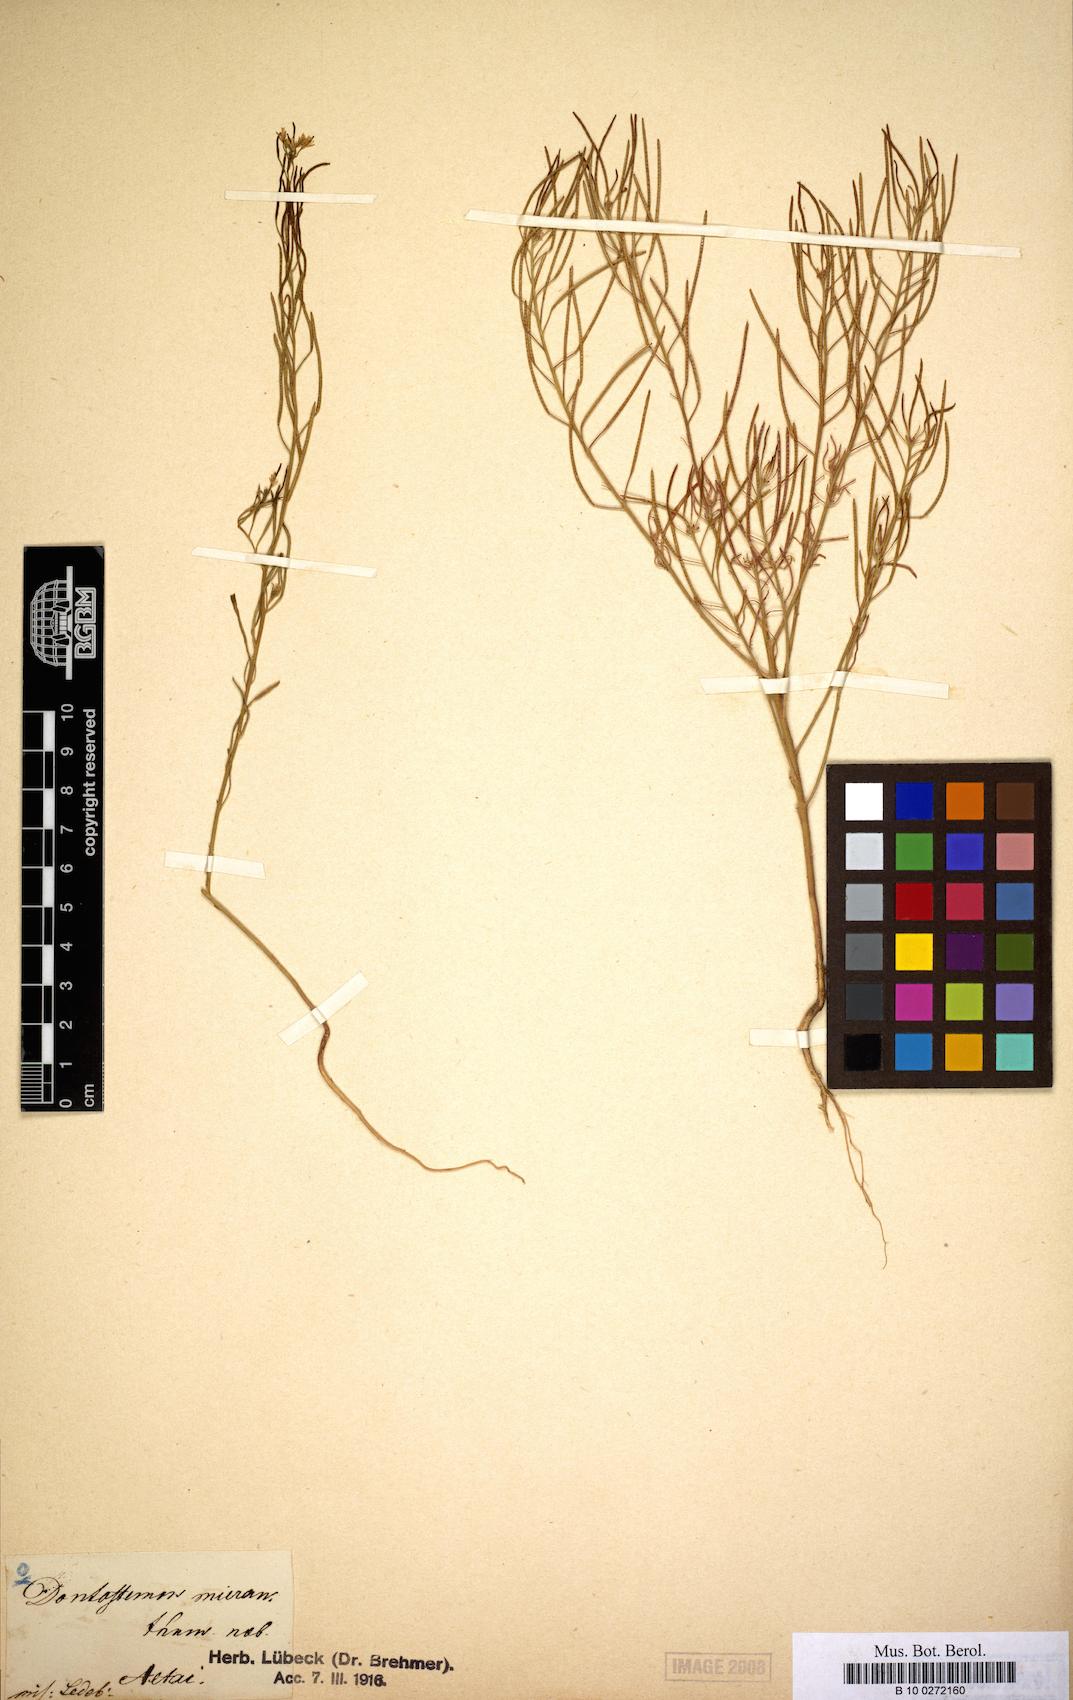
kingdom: Plantae
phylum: Tracheophyta
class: Magnoliopsida
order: Brassicales
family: Brassicaceae
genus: Dontostemon
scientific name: Dontostemon micranthus
